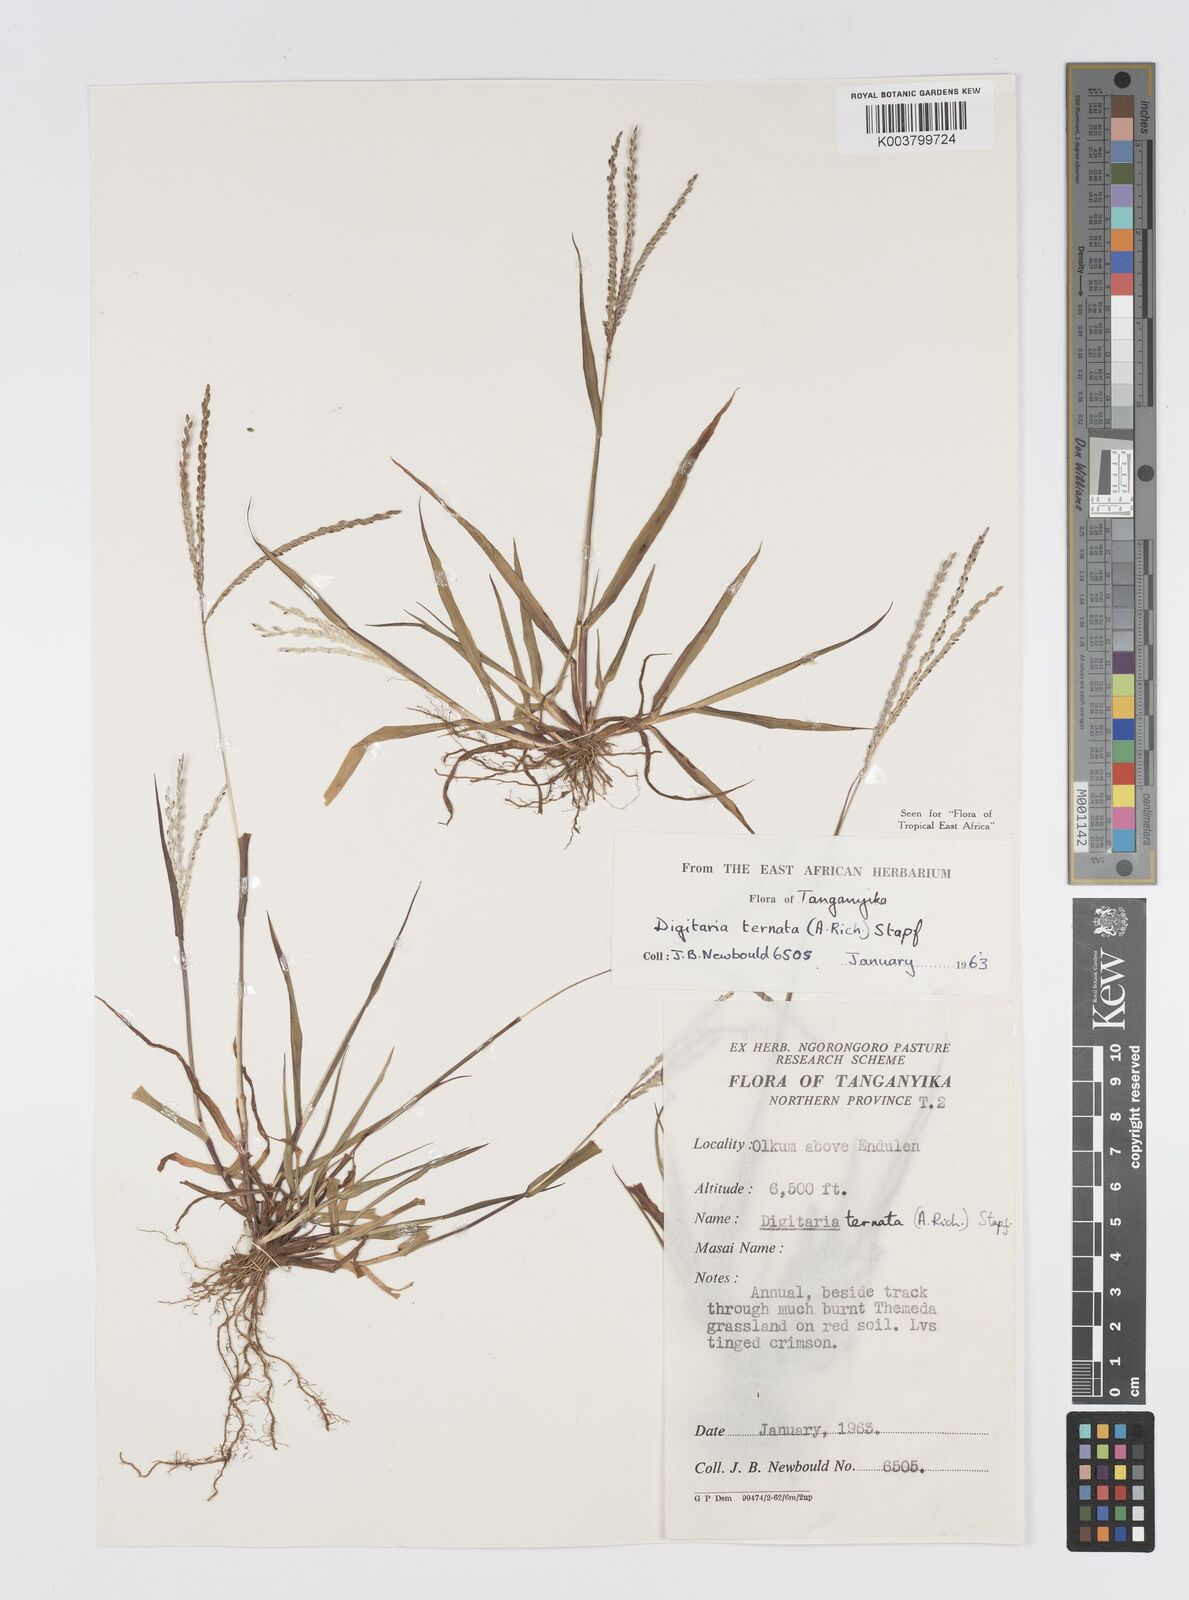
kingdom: Plantae
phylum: Tracheophyta
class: Liliopsida
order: Poales
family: Poaceae
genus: Digitaria
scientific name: Digitaria ternata
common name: Blackseed crabgrass
